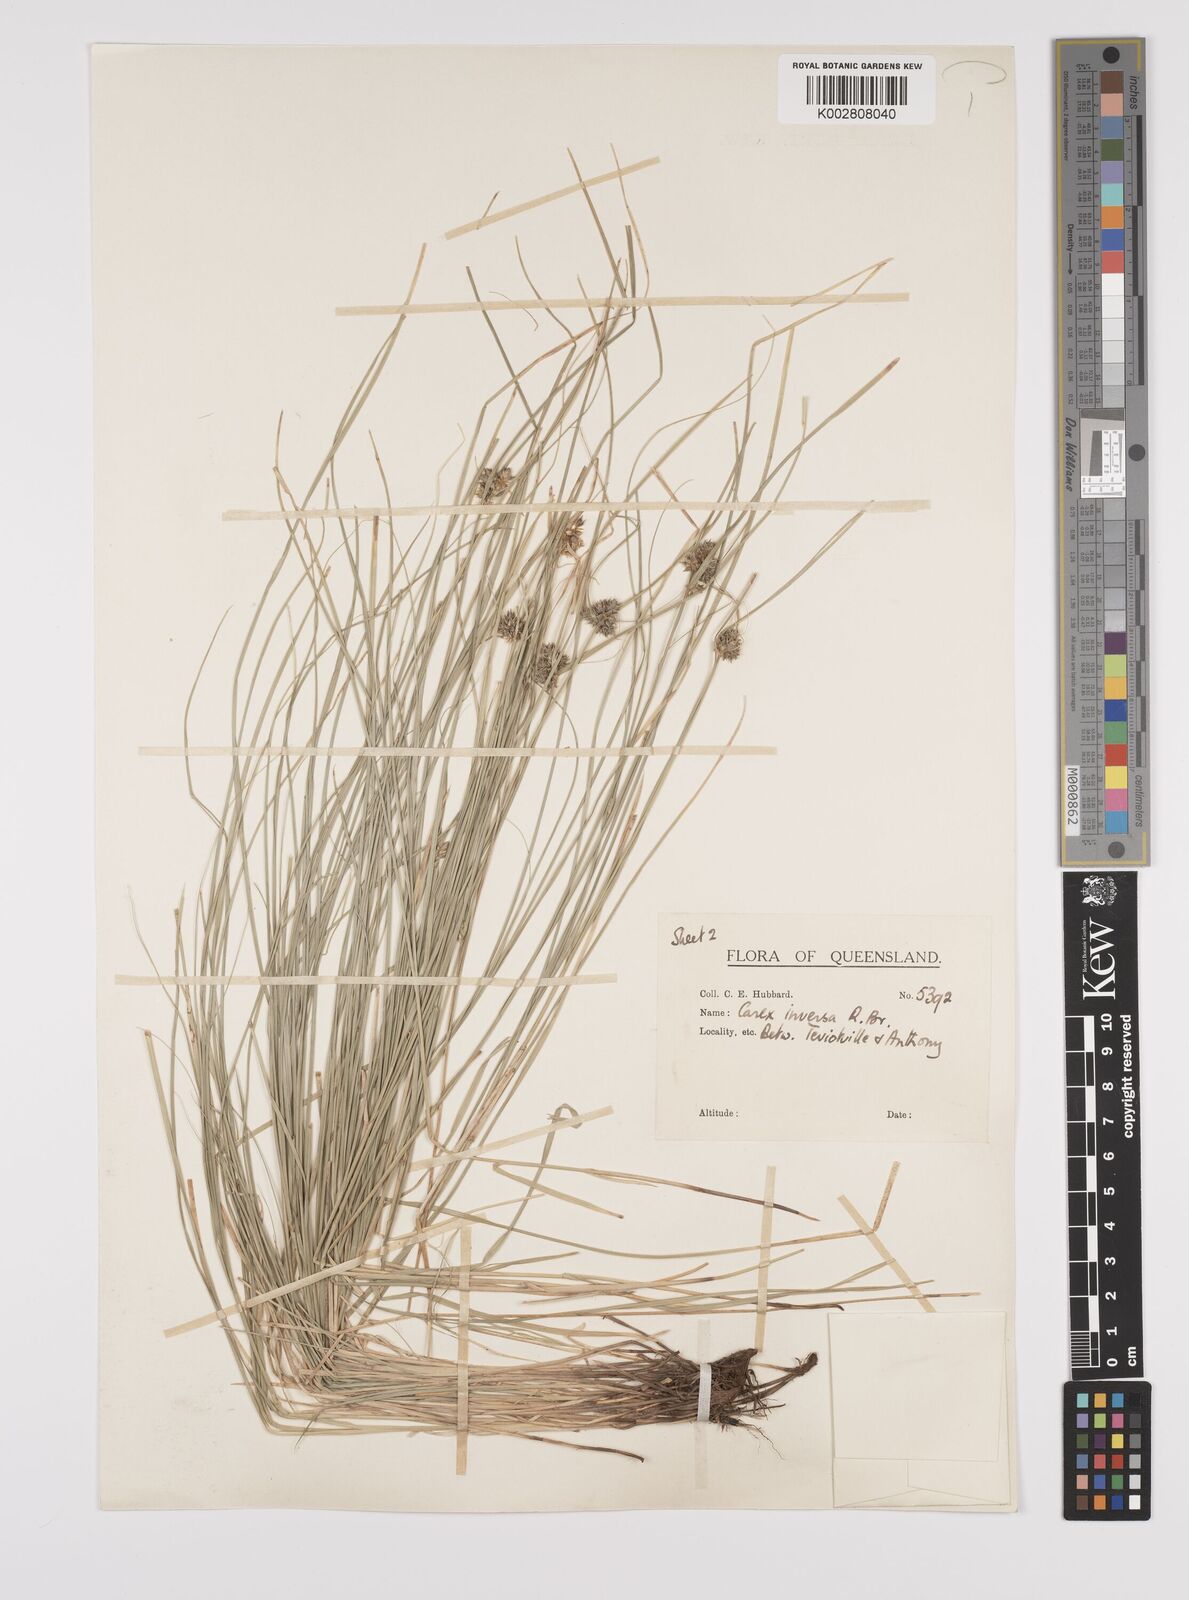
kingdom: Plantae
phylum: Tracheophyta
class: Liliopsida
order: Poales
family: Cyperaceae
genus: Carex
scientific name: Carex inversa
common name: Knob sedge
